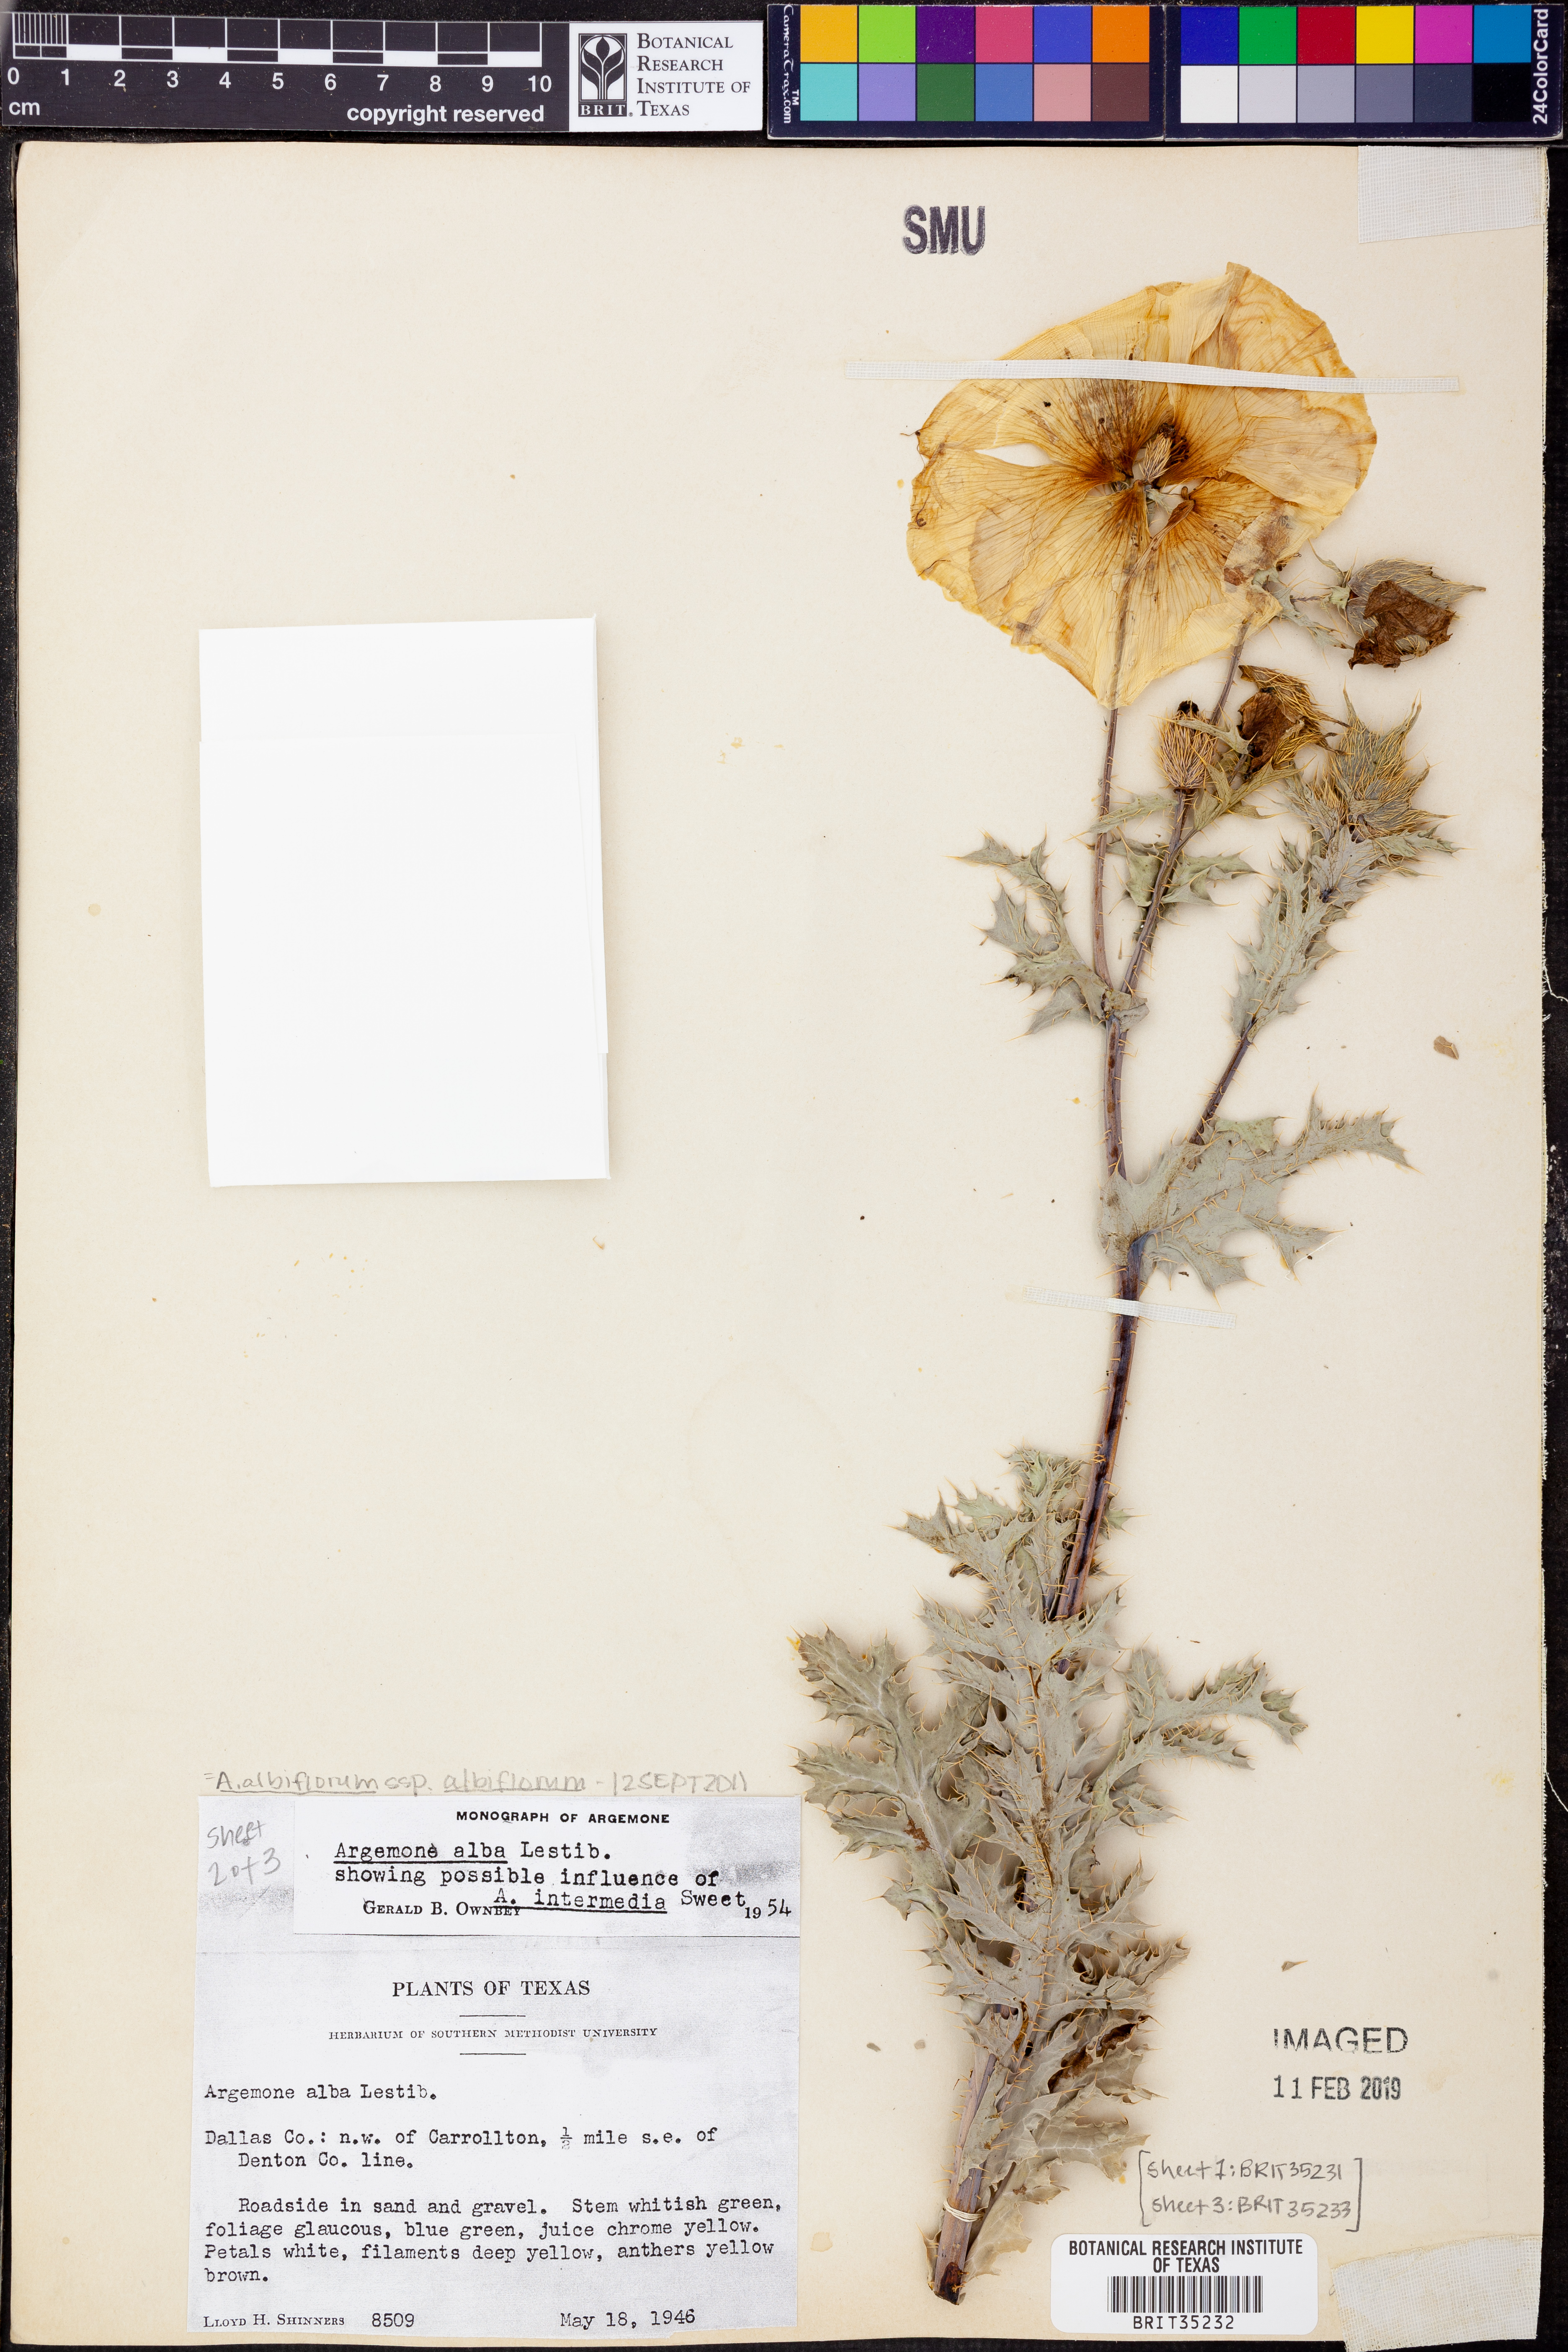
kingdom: Plantae
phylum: Tracheophyta
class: Magnoliopsida
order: Ranunculales
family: Papaveraceae
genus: Argemone
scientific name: Argemone albiflora
